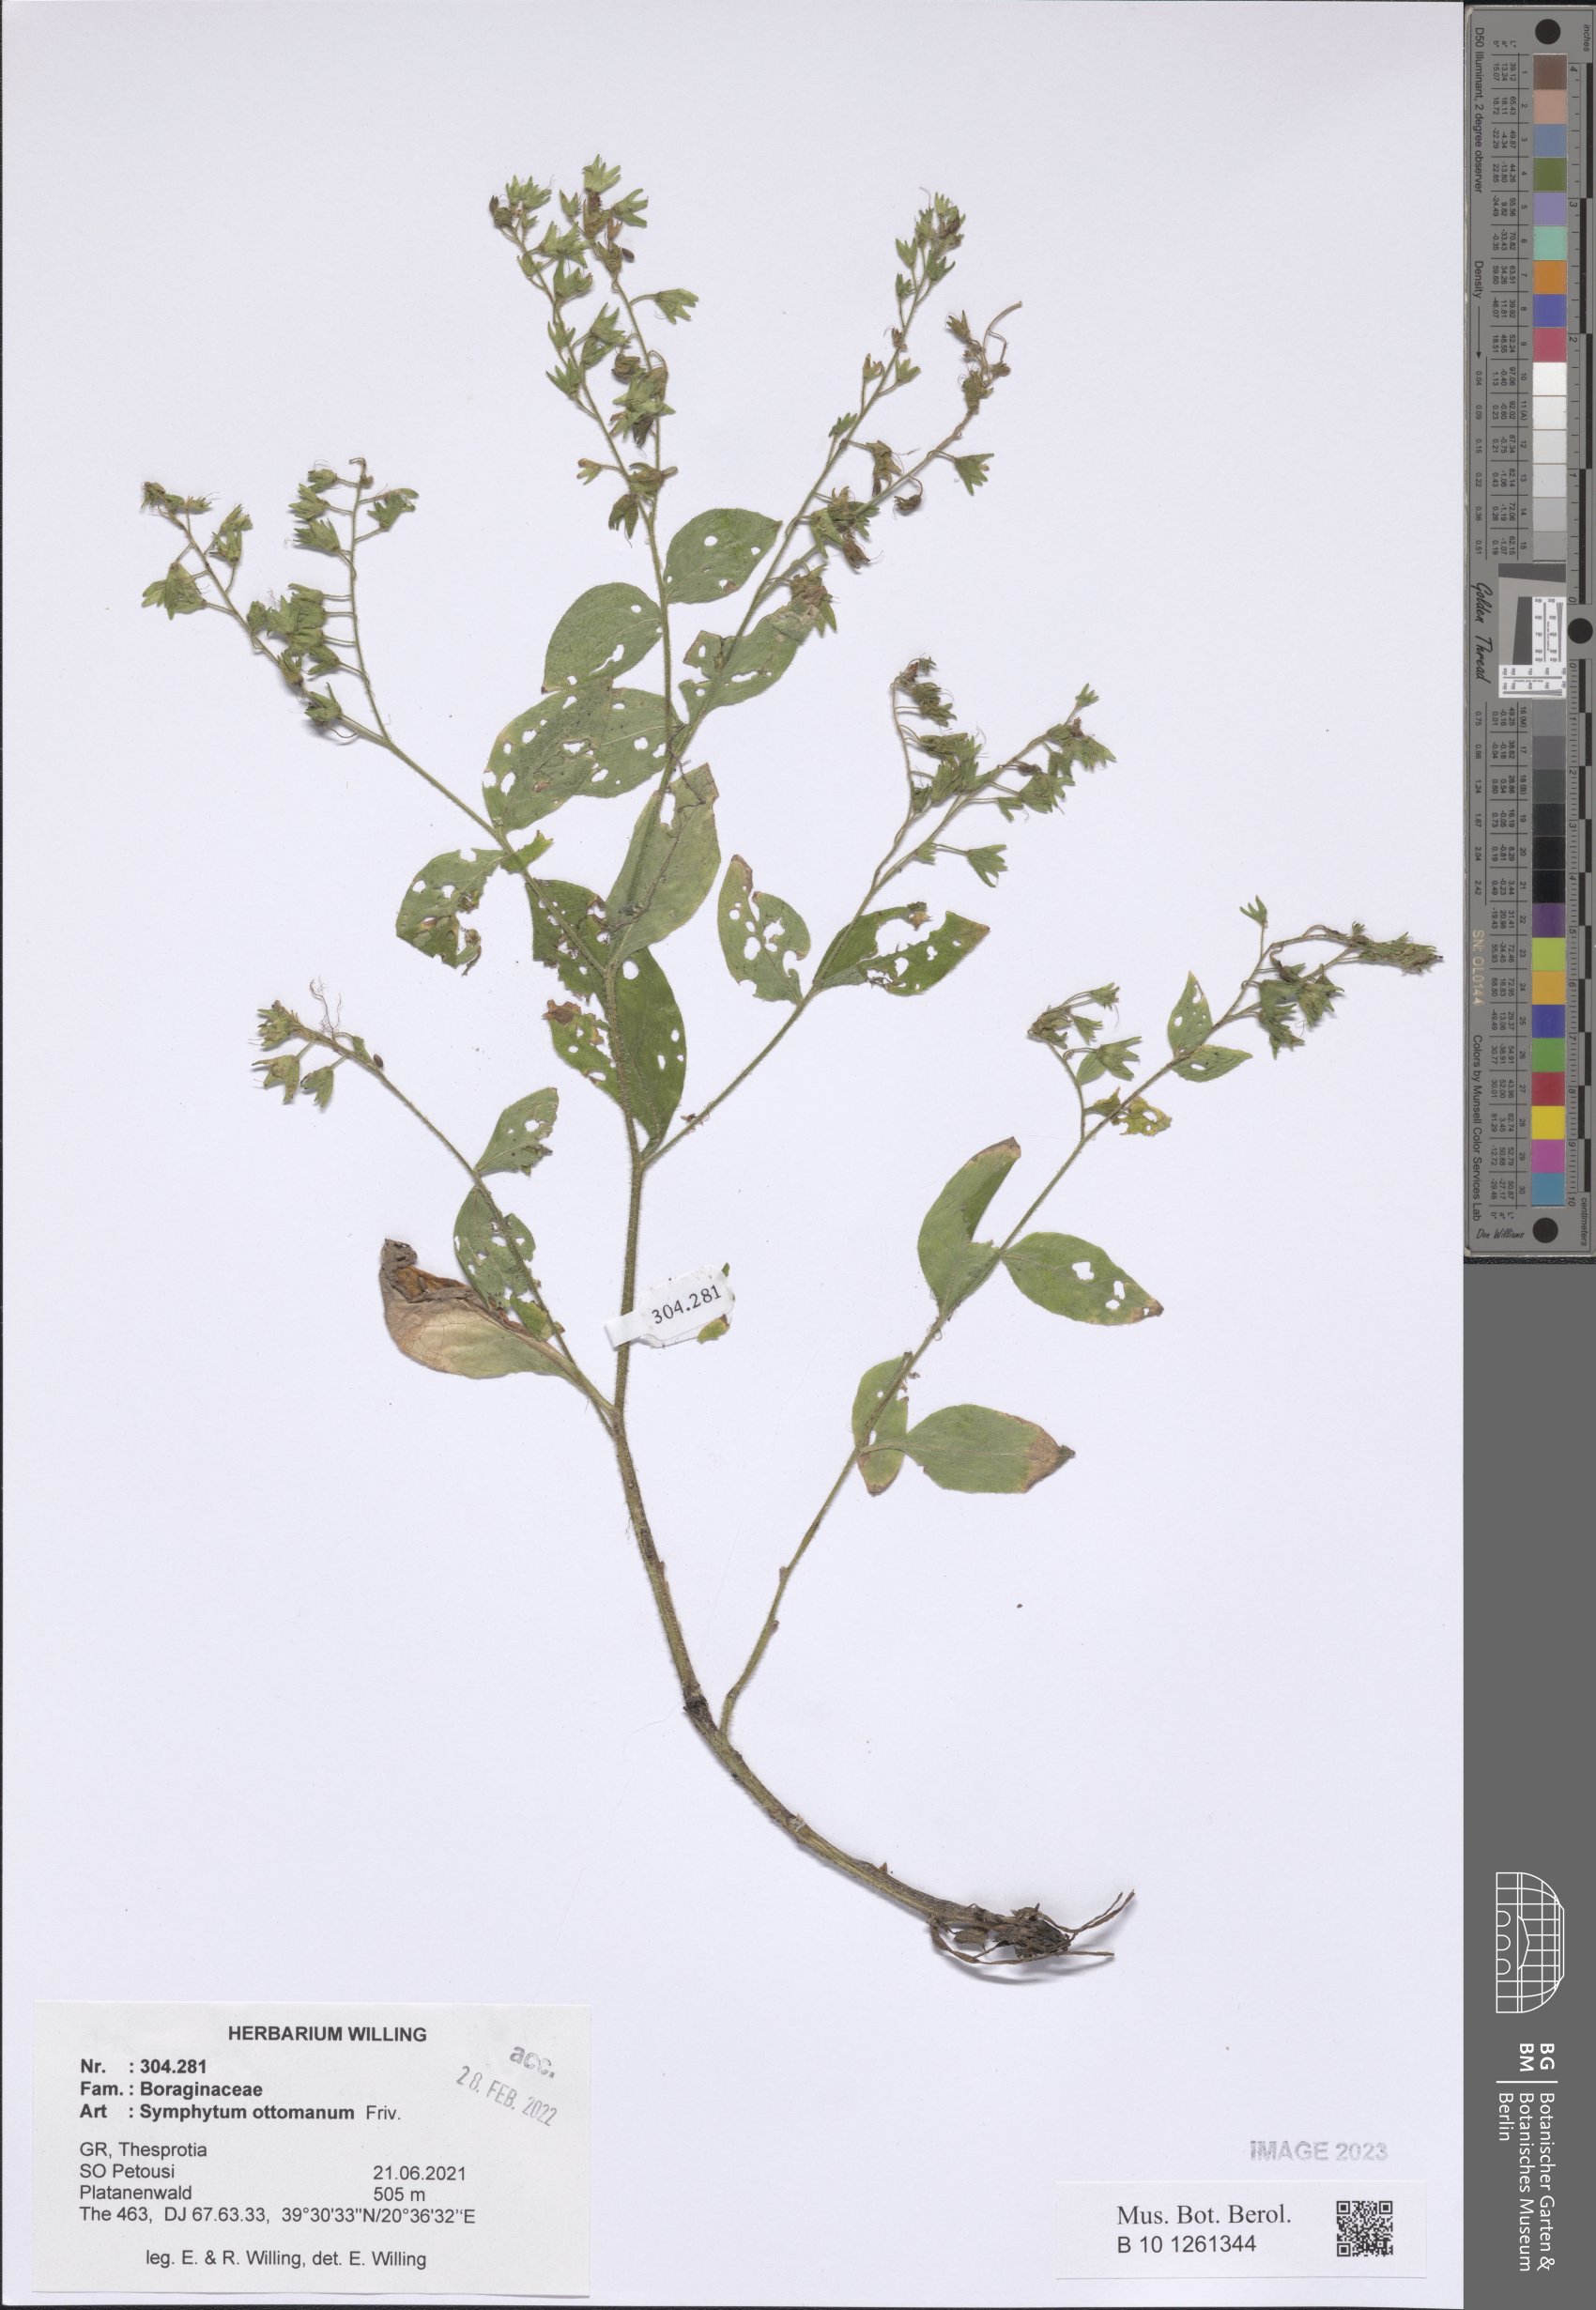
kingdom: Plantae
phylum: Tracheophyta
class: Magnoliopsida
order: Boraginales
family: Boraginaceae
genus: Symphytum
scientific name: Symphytum ottomanum
